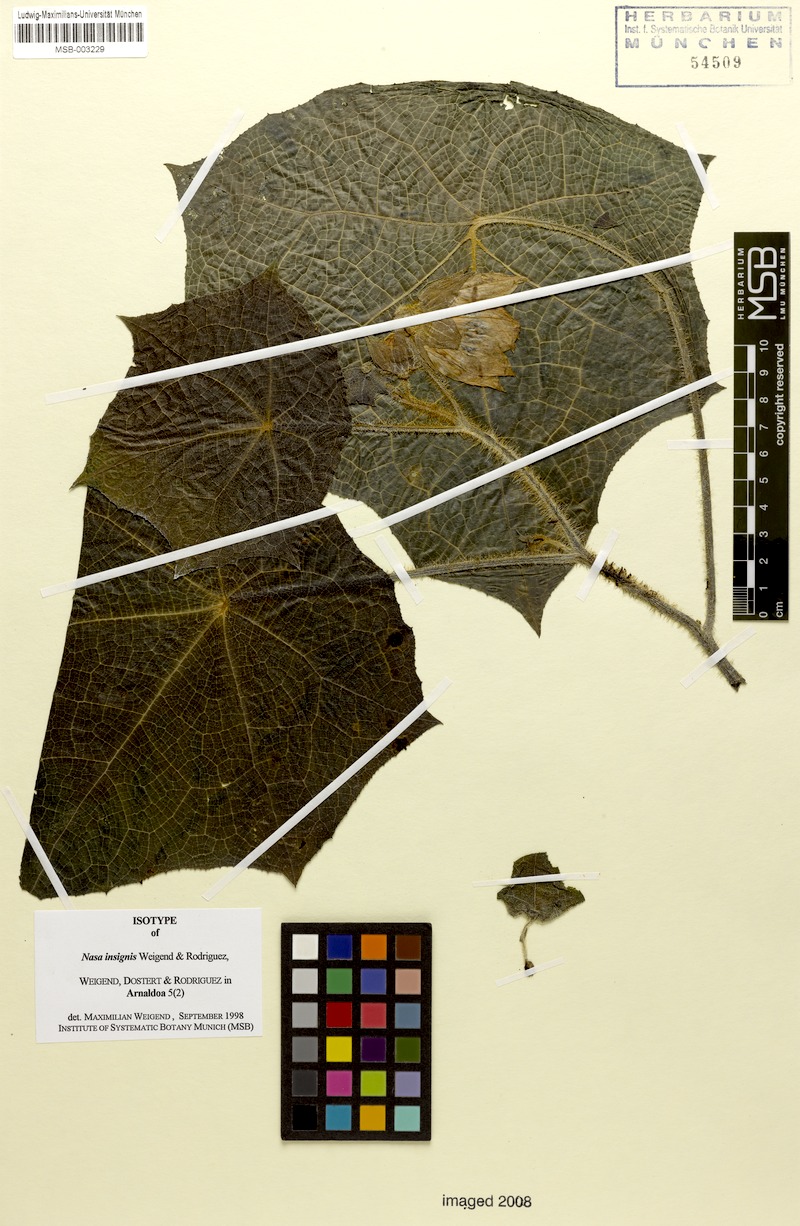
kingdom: Plantae
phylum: Tracheophyta
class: Magnoliopsida
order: Cornales
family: Loasaceae
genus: Nasa
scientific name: Nasa insignis
